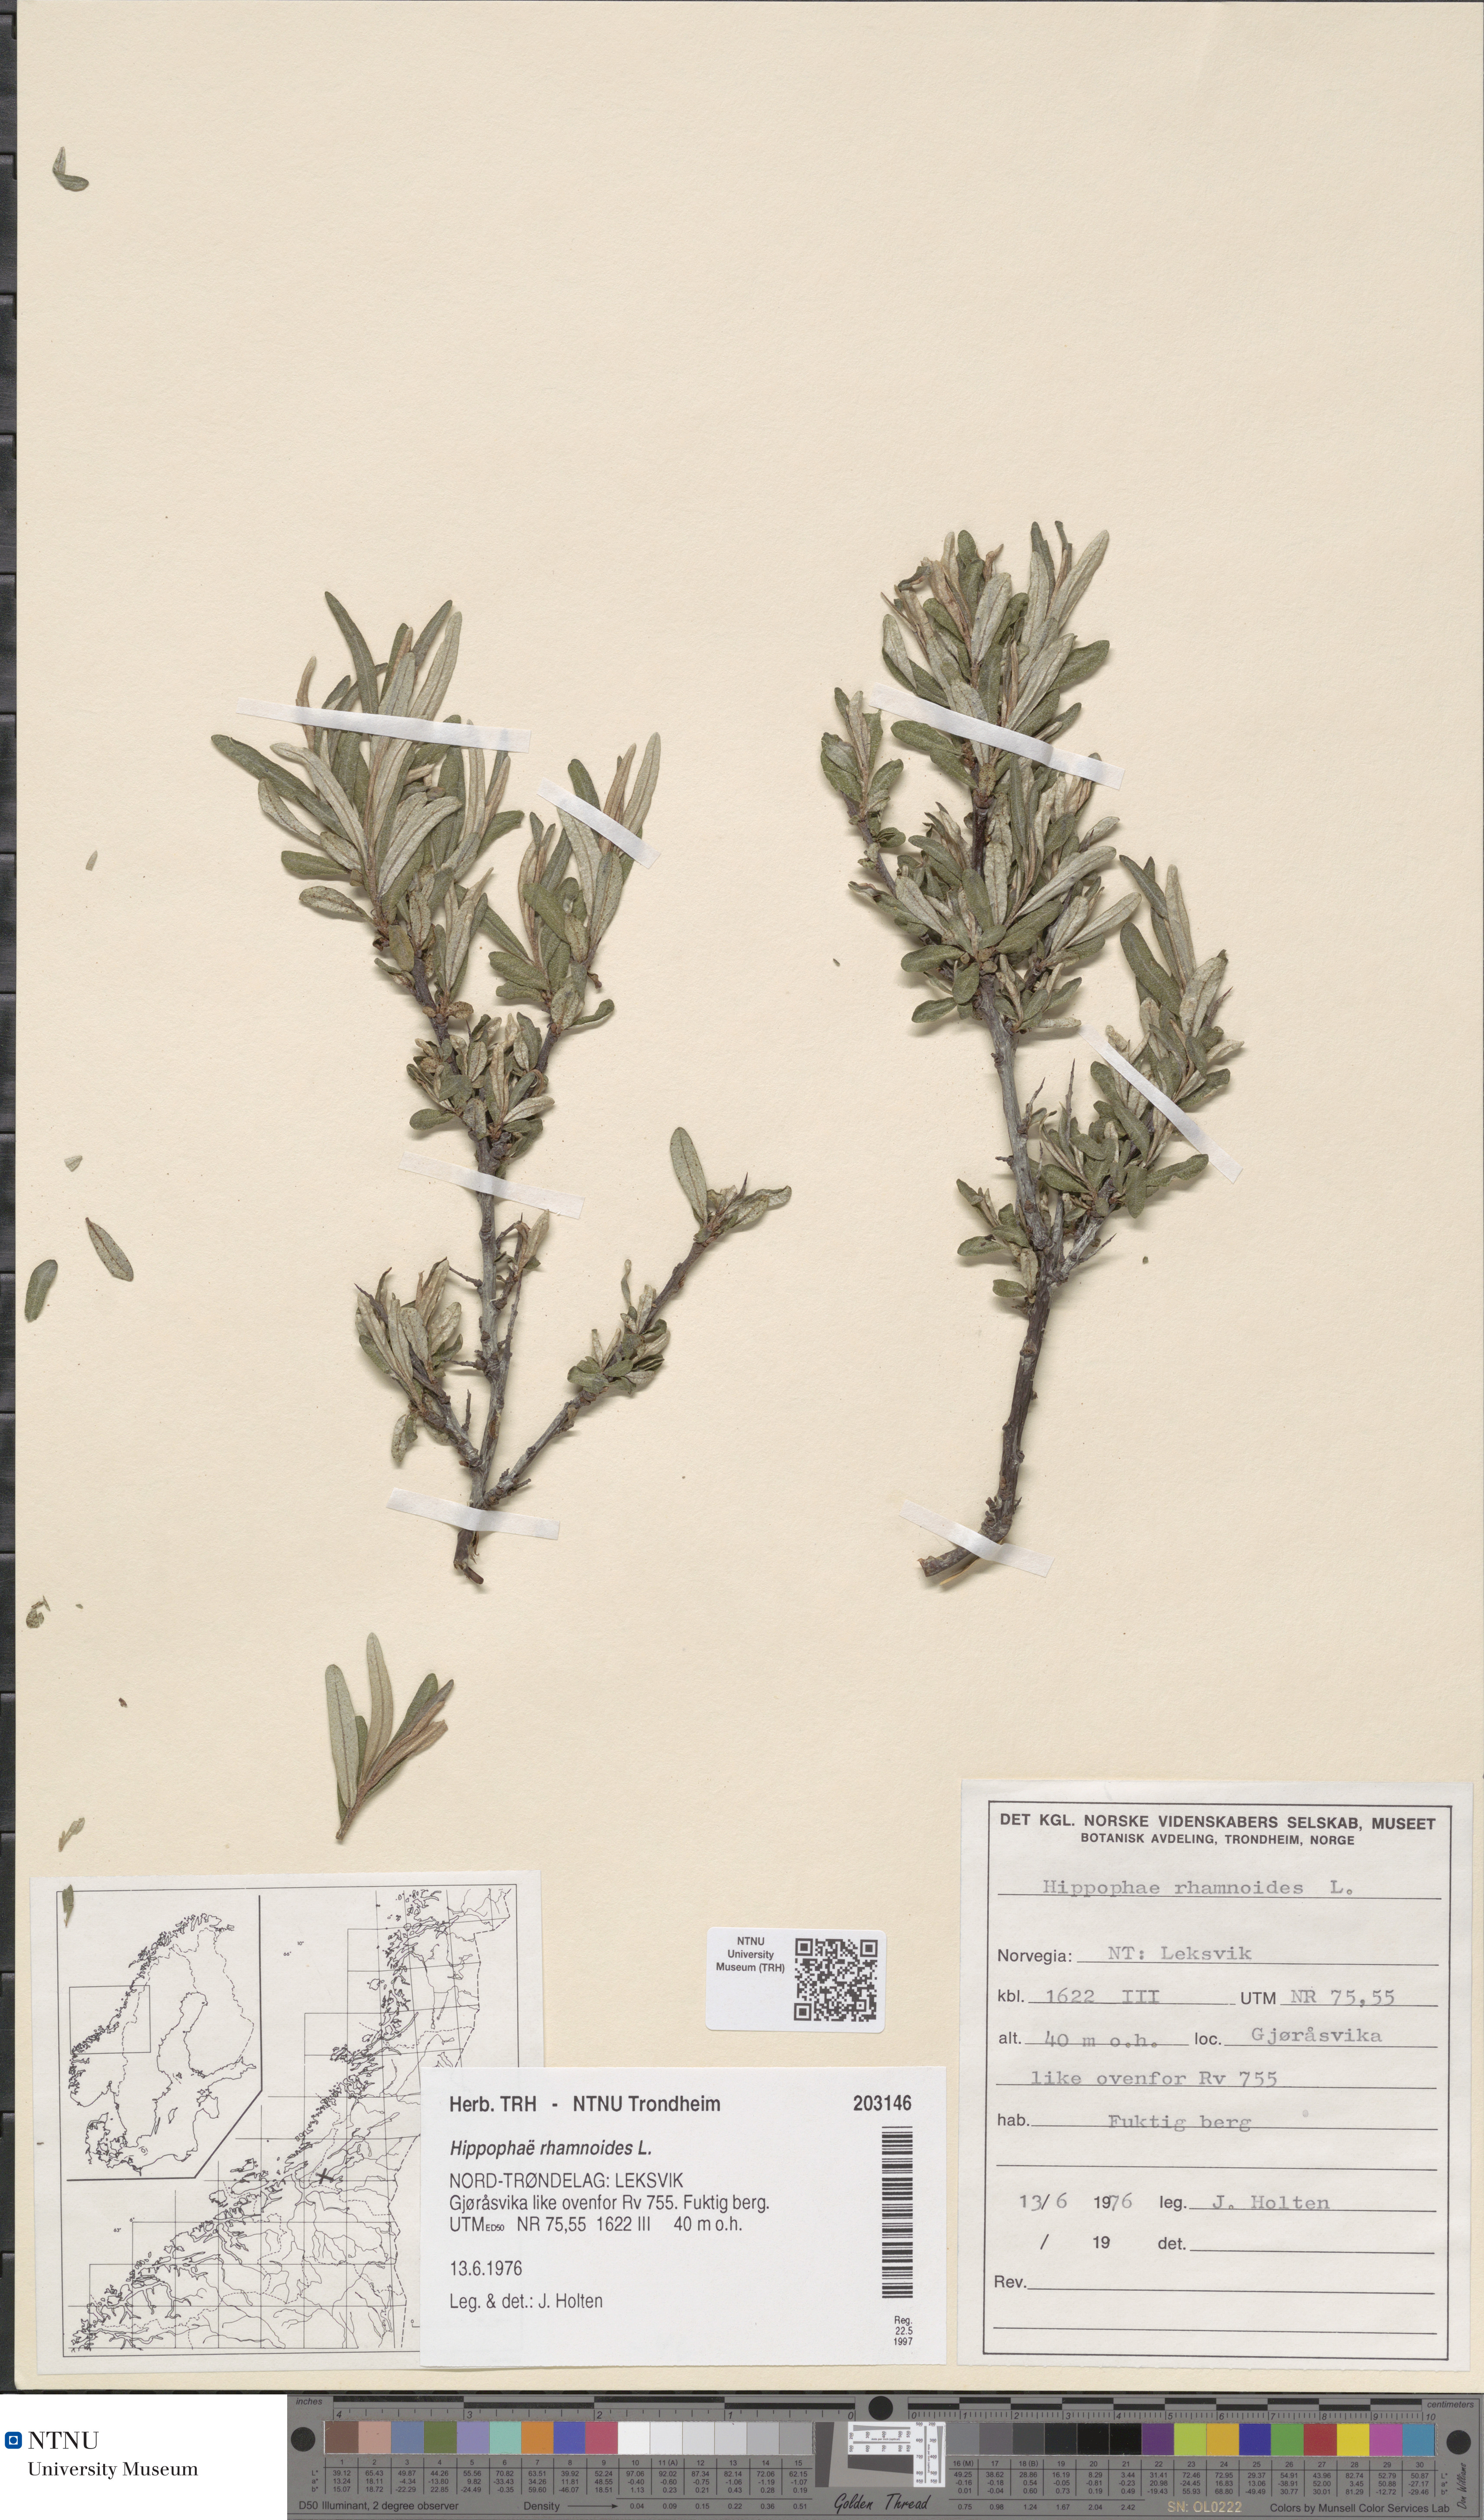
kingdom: Plantae
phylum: Tracheophyta
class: Magnoliopsida
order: Rosales
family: Elaeagnaceae
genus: Hippophae
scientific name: Hippophae rhamnoides
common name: Sea-buckthorn
